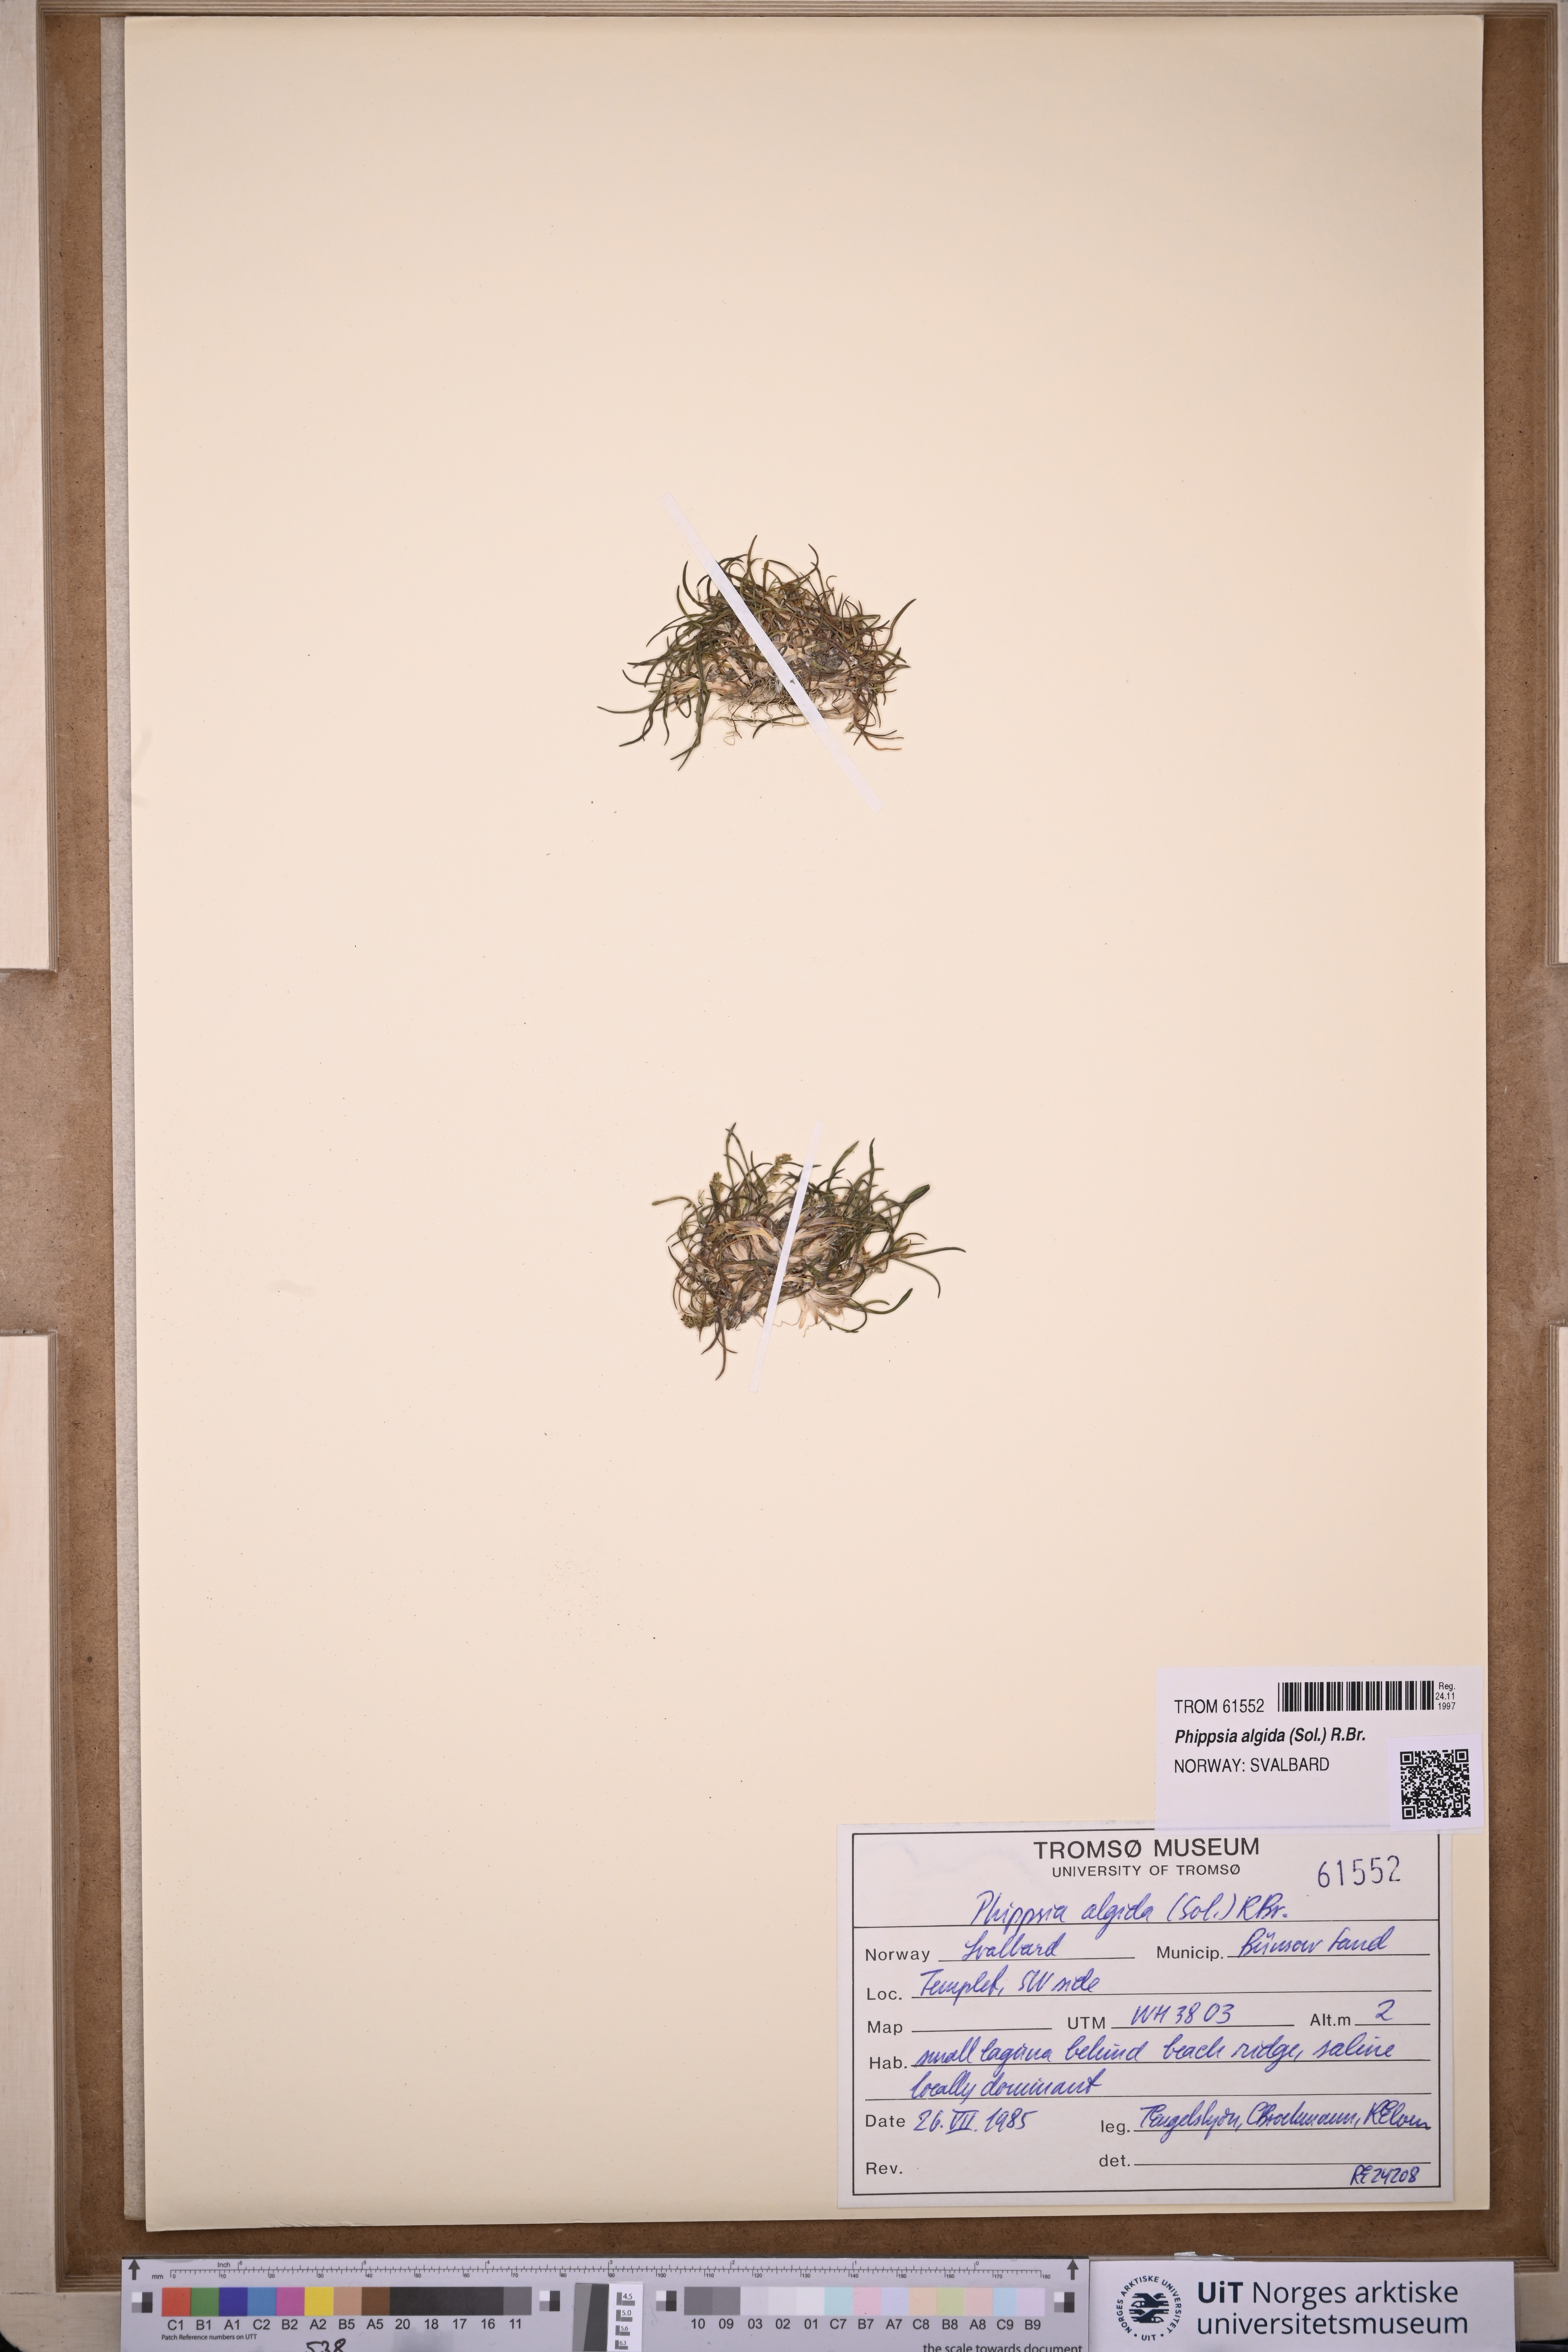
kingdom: Plantae
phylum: Tracheophyta
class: Liliopsida
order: Poales
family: Poaceae
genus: Phippsia
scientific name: Phippsia algida
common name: Ice grass
